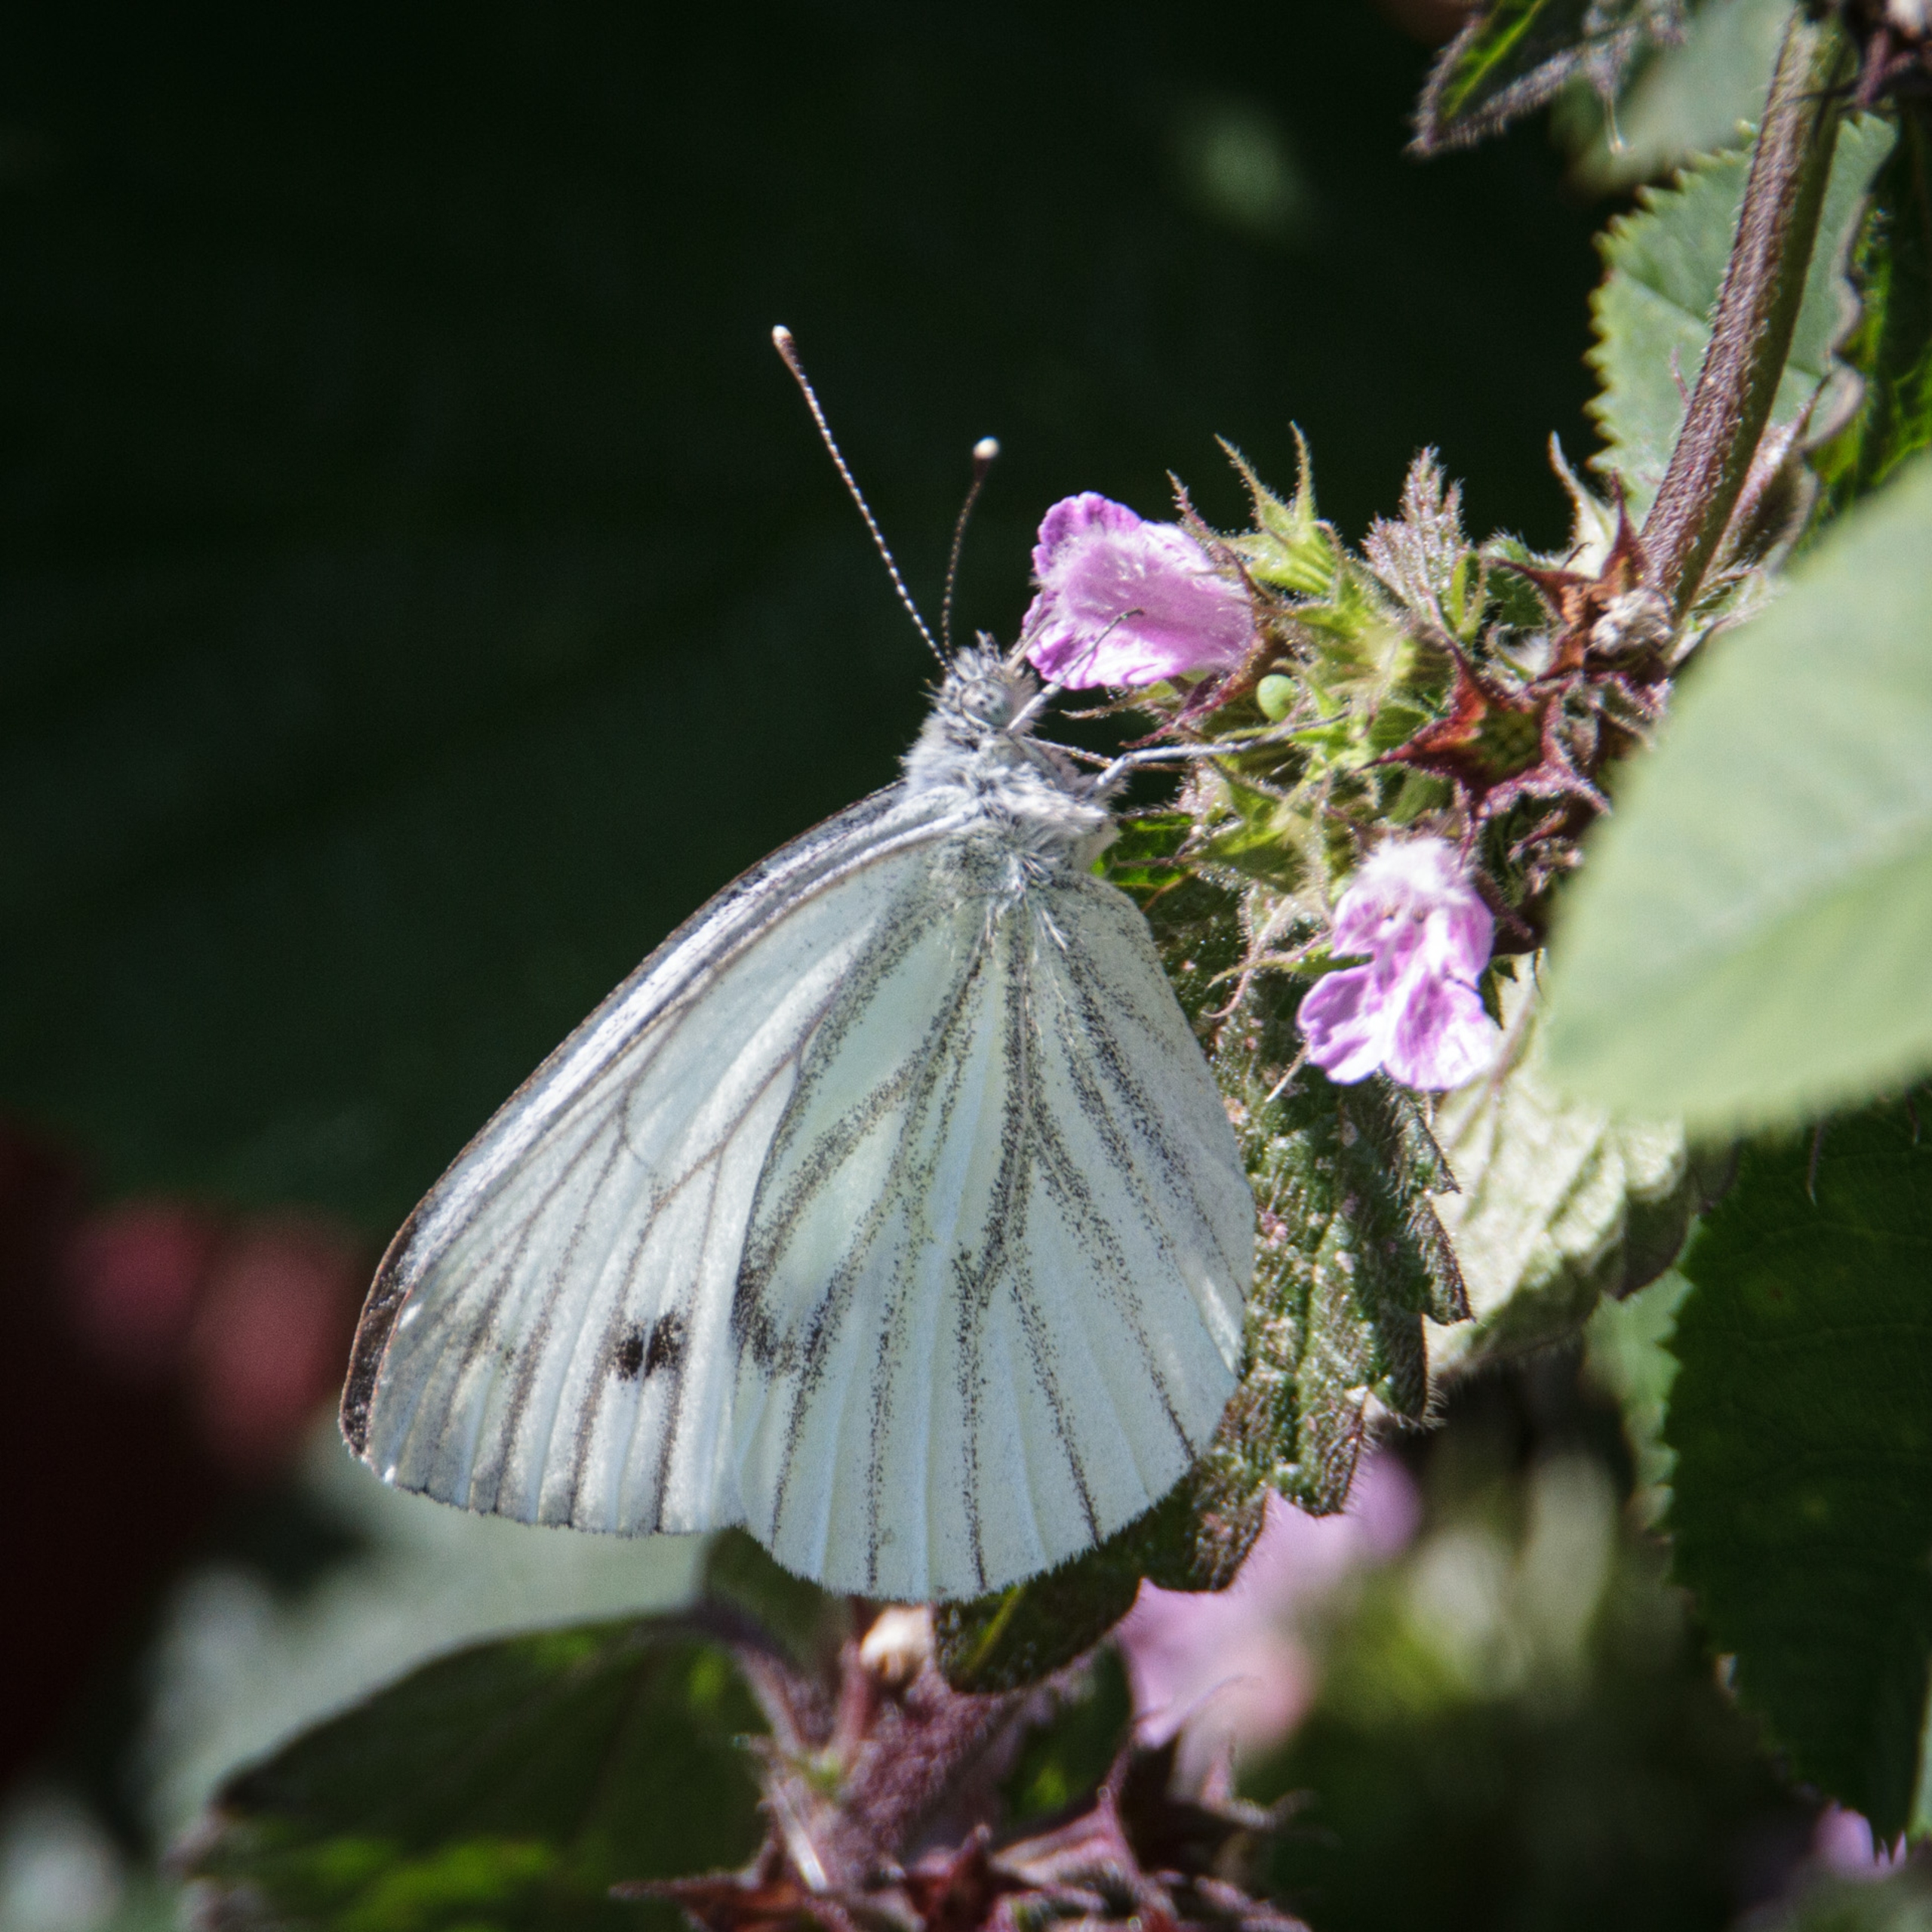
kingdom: Animalia
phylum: Arthropoda
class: Insecta
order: Lepidoptera
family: Pieridae
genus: Pieris
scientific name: Pieris napi
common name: Grønåret kålsommerfugl
